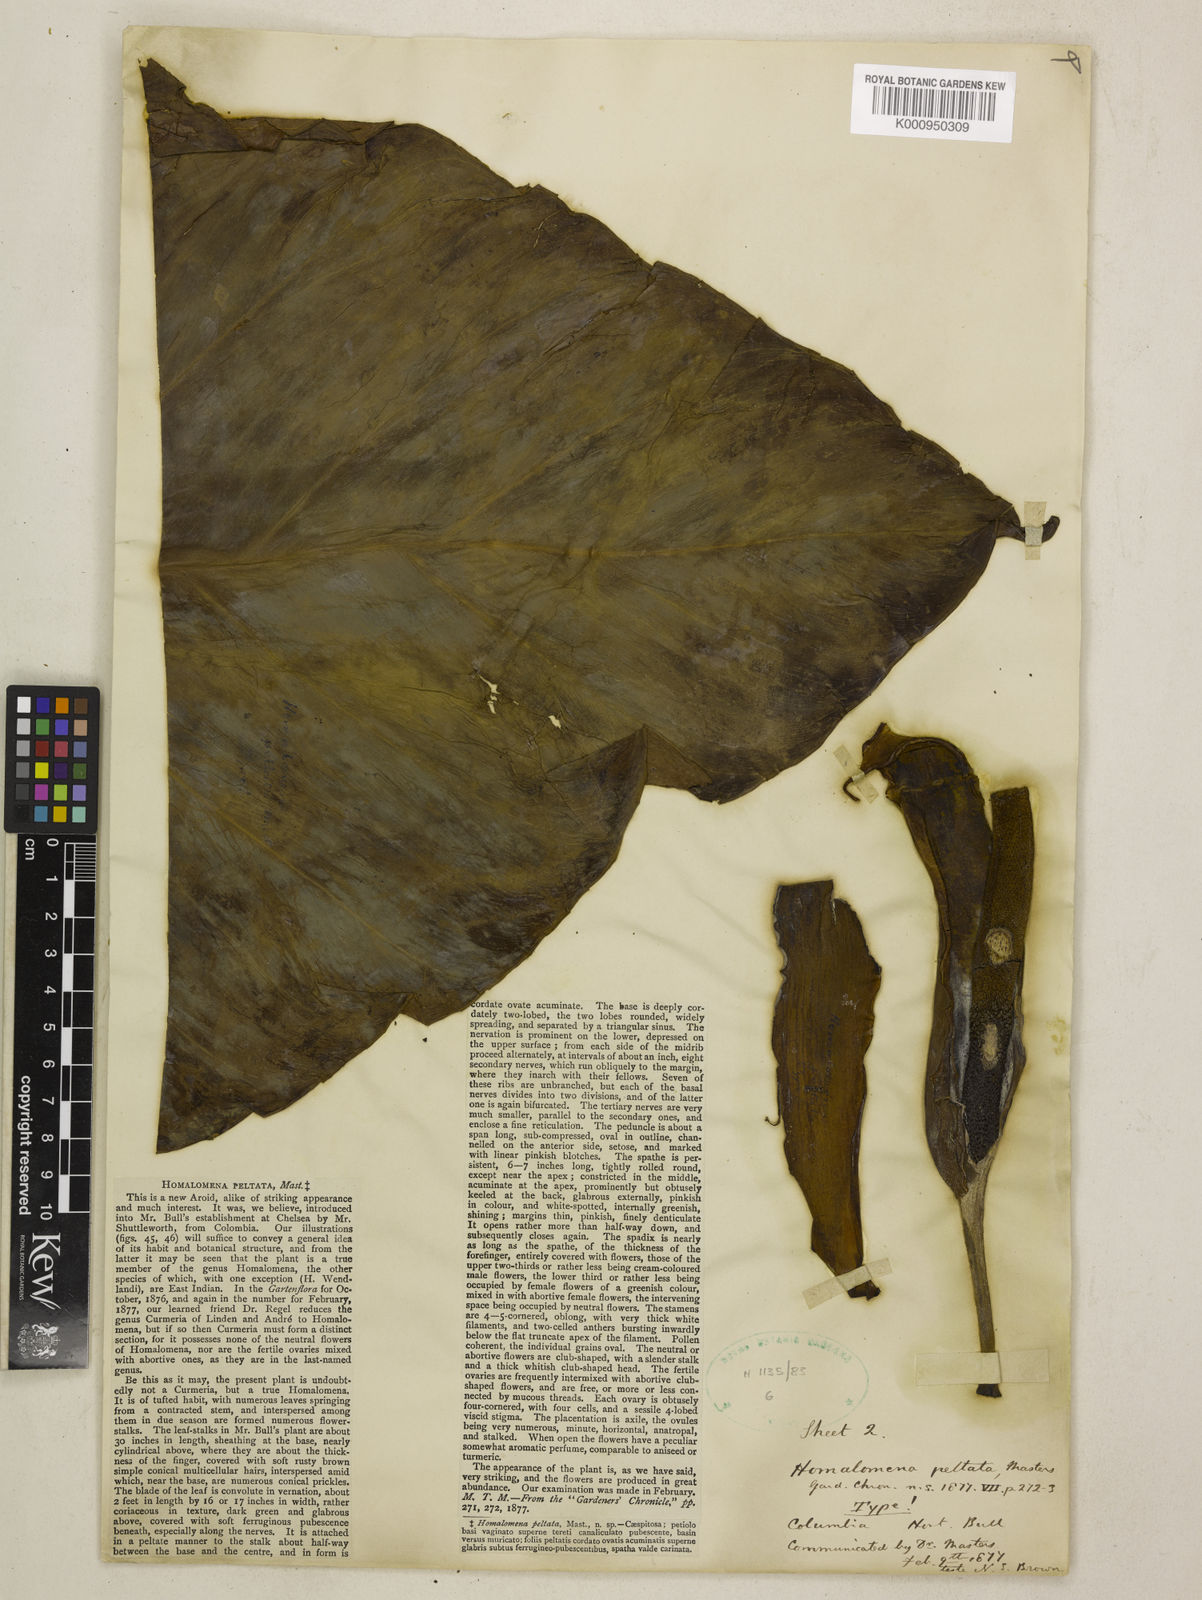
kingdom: Plantae
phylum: Tracheophyta
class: Liliopsida
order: Alismatales
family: Araceae
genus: Adelonema
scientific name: Adelonema peltatum
